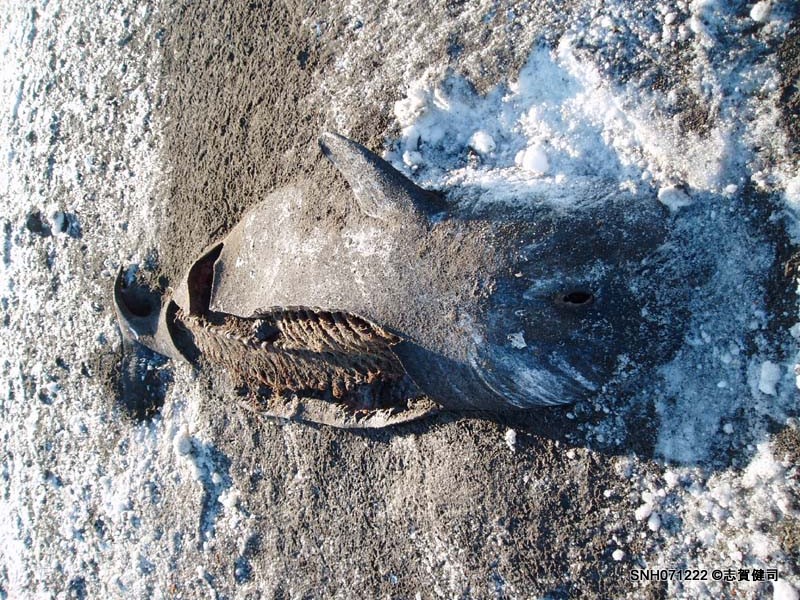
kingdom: Animalia
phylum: Chordata
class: Mammalia
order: Cetacea
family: Delphinidae
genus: Globicephala
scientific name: Globicephala
